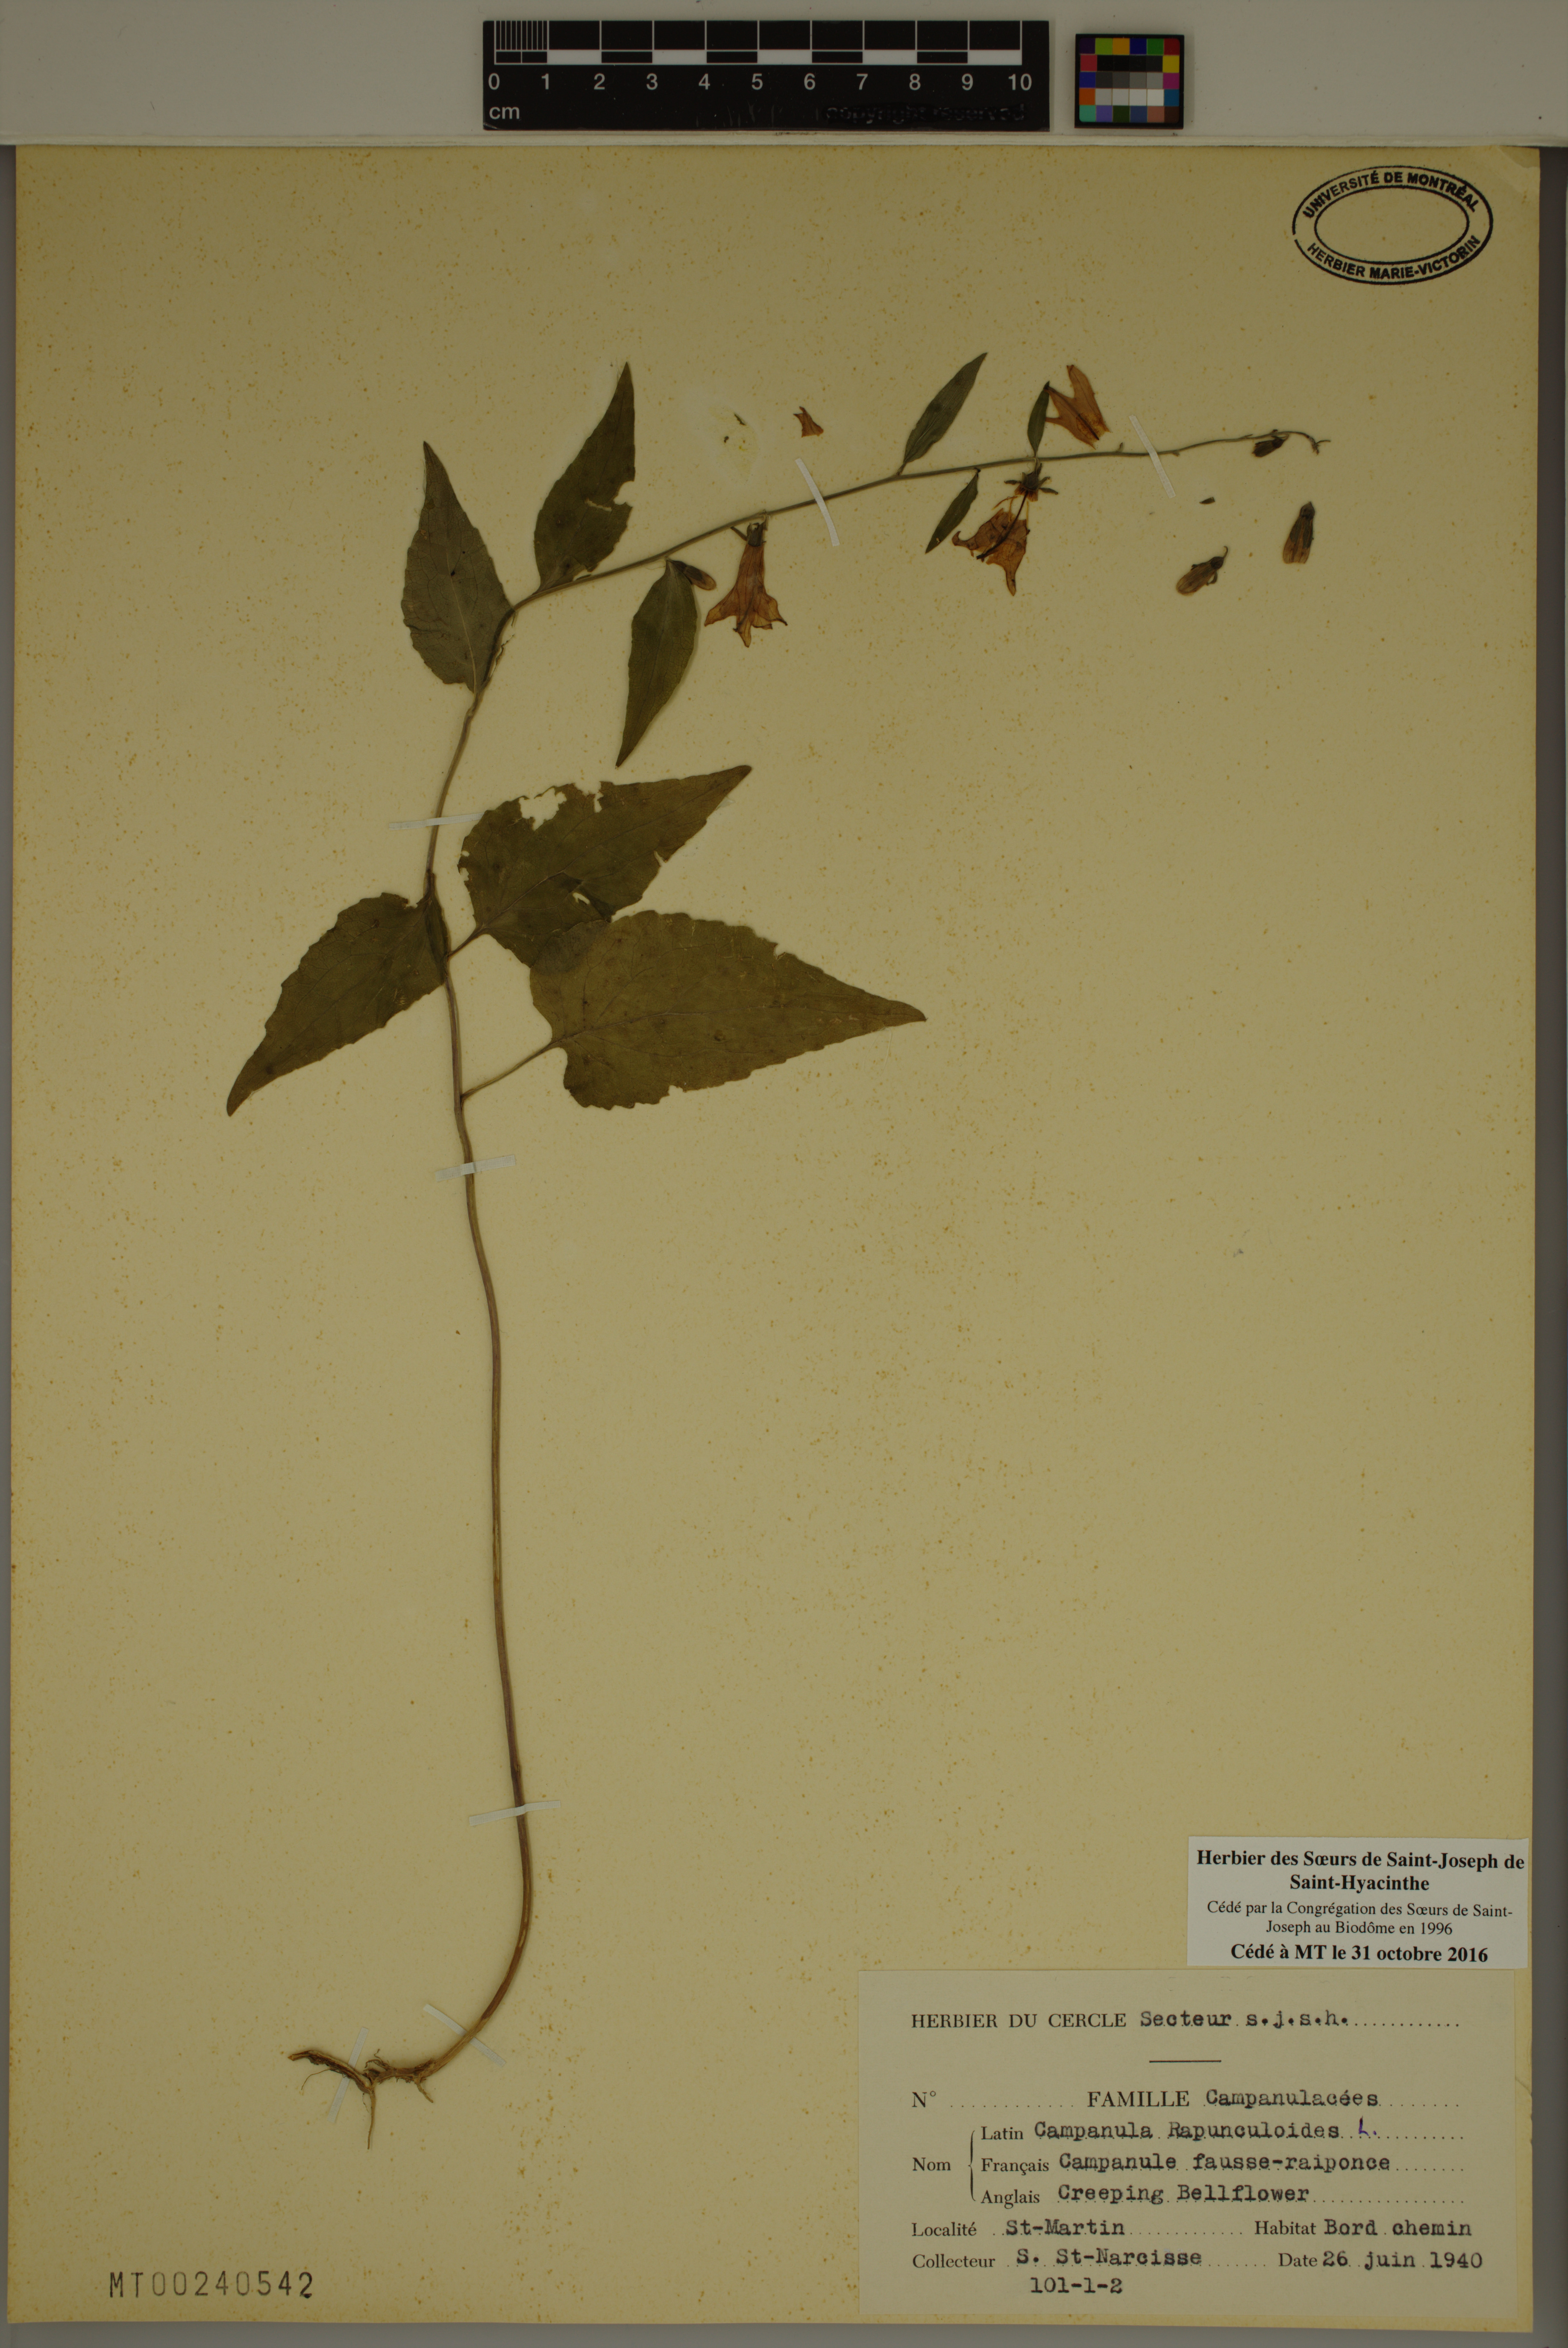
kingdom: Plantae
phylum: Tracheophyta
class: Magnoliopsida
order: Asterales
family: Campanulaceae
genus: Campanula
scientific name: Campanula rapunculoides
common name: Creeping bellflower
